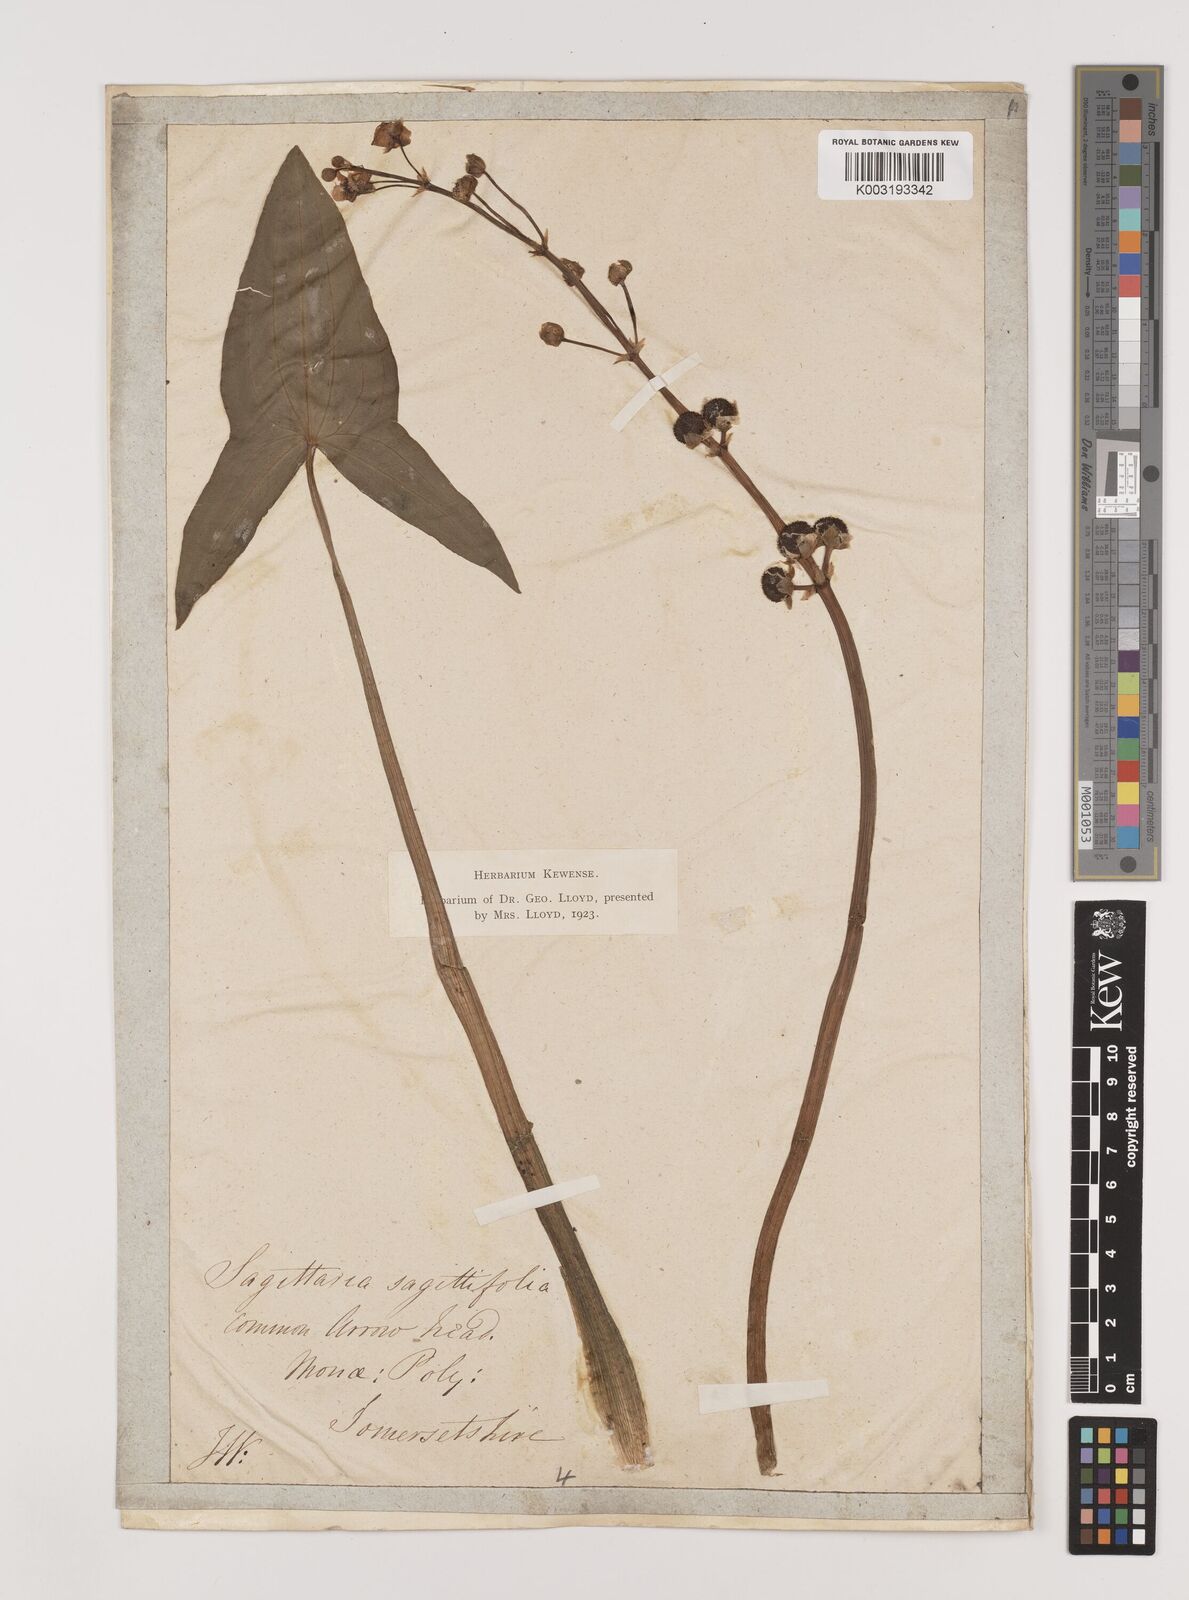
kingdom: Plantae
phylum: Tracheophyta
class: Liliopsida
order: Alismatales
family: Alismataceae
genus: Sagittaria
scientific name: Sagittaria sagittifolia
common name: Arrowhead
